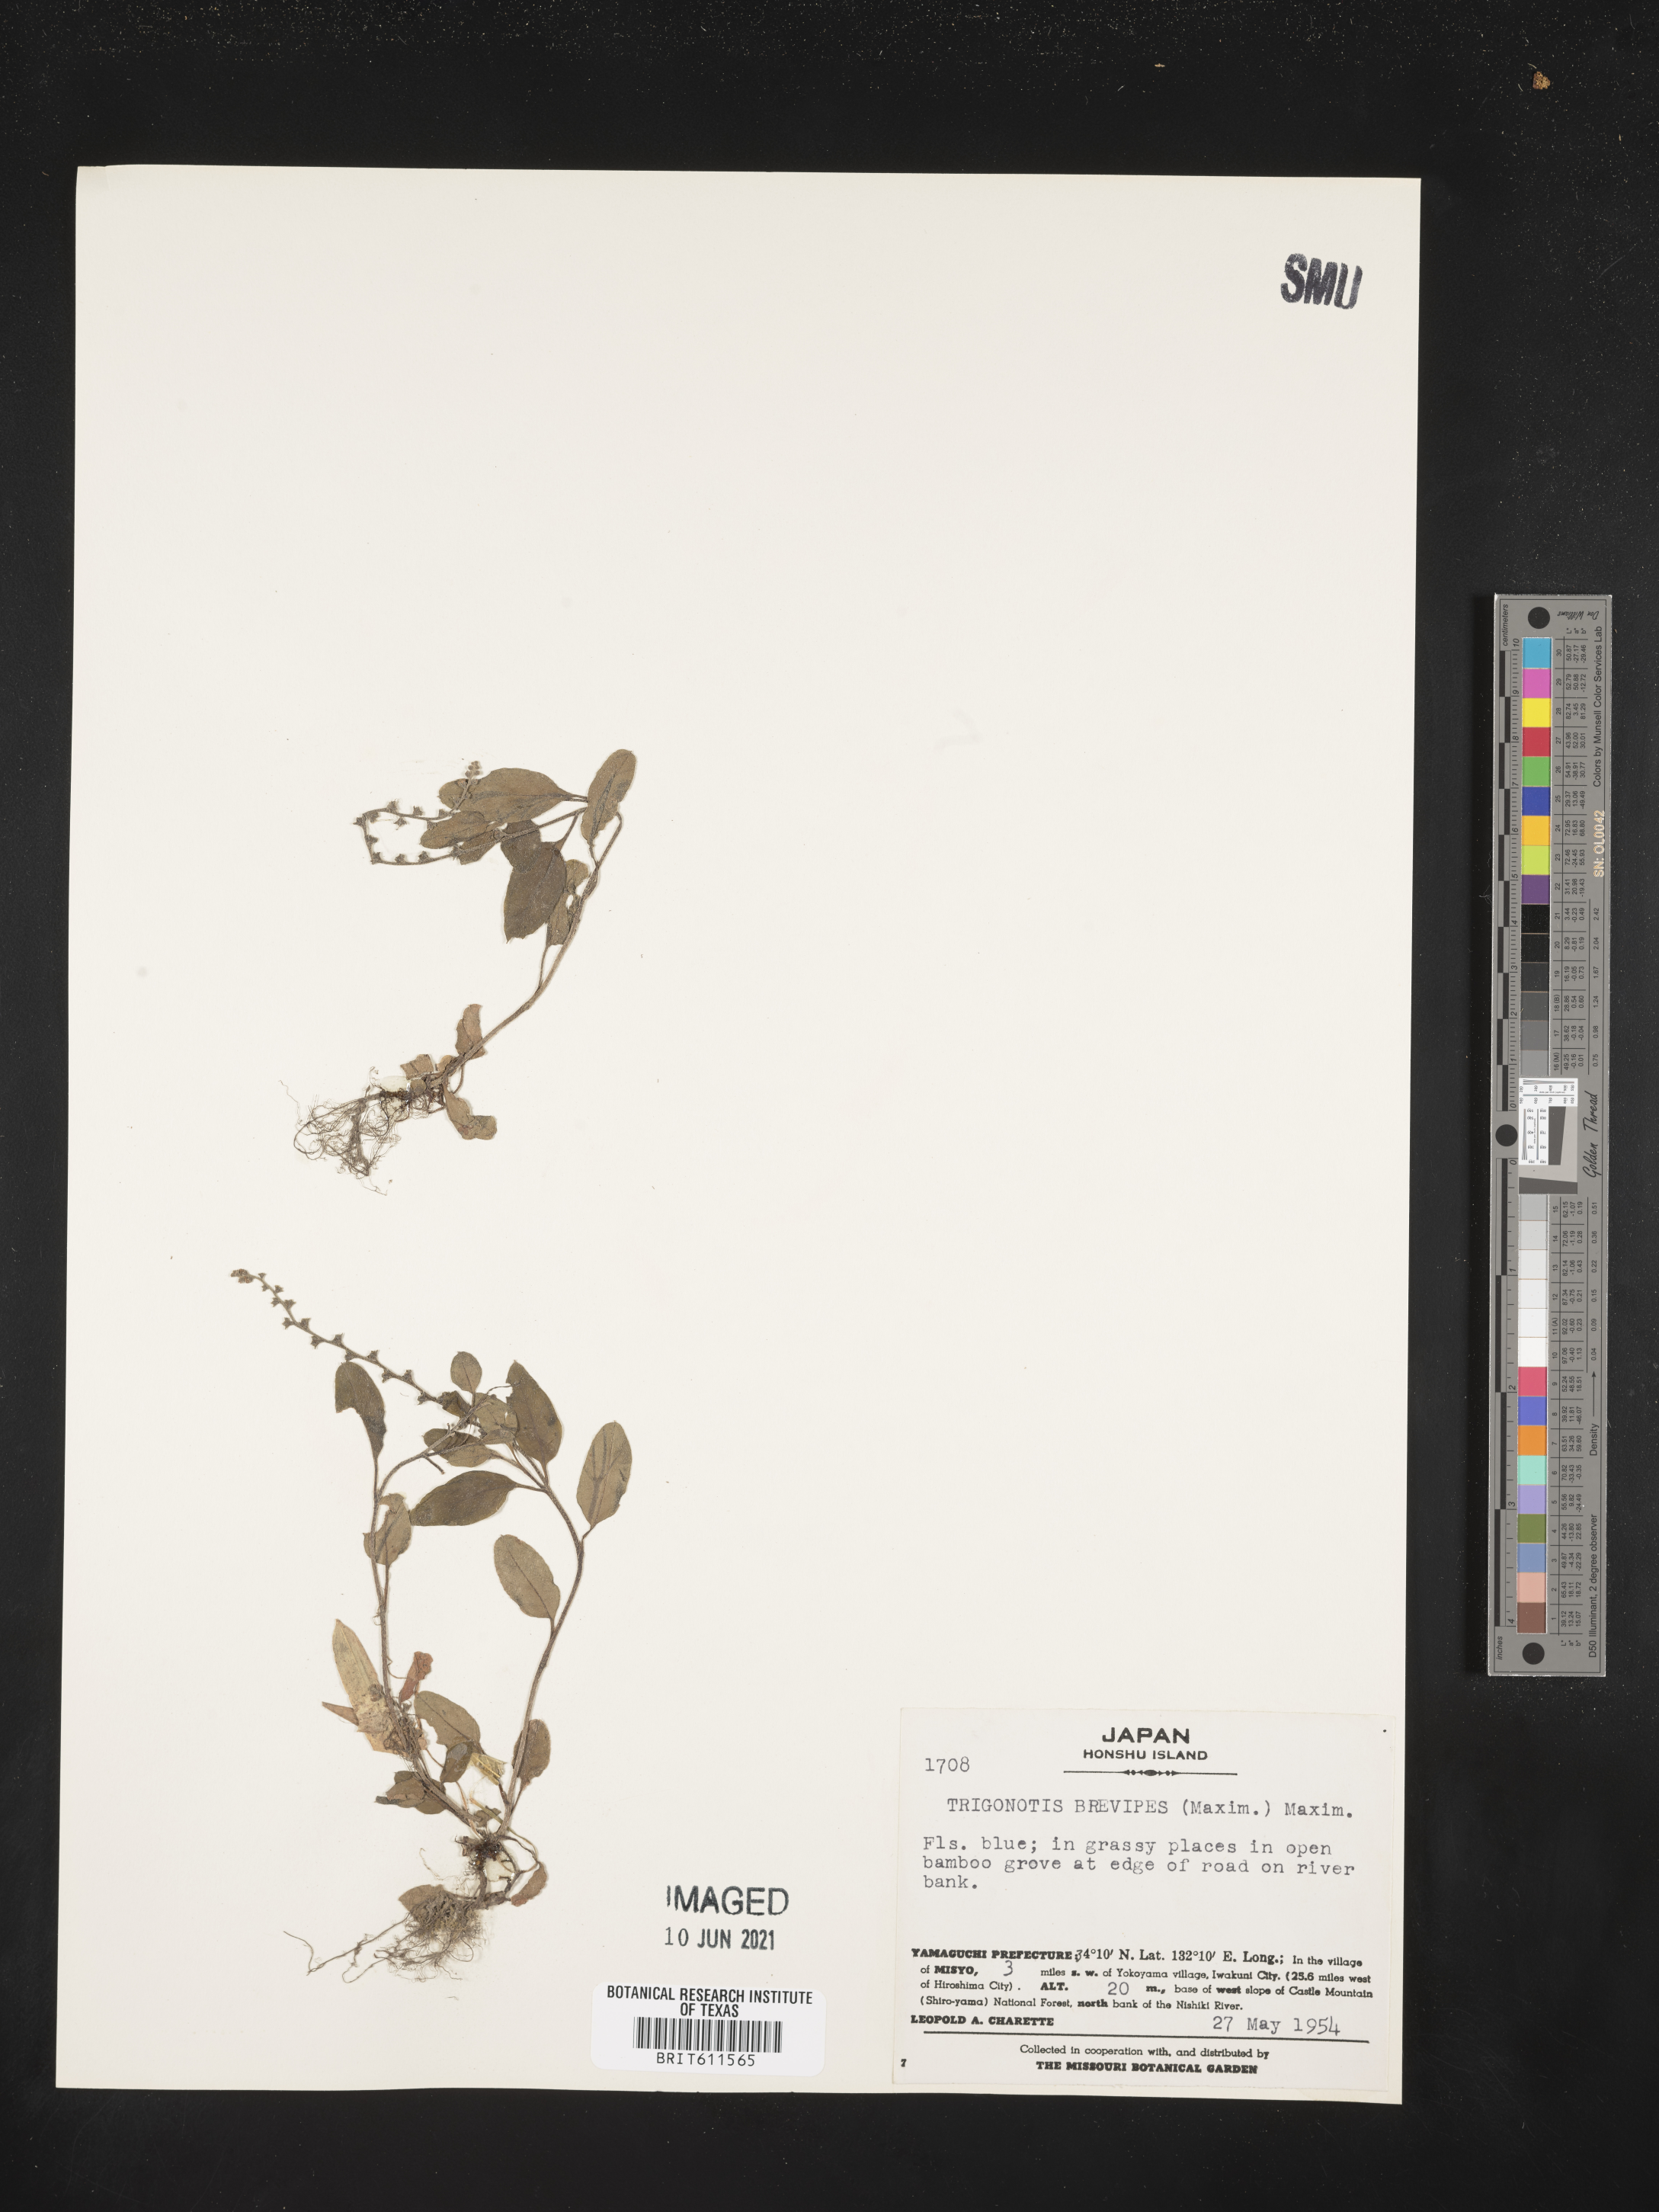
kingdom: Plantae
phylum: Tracheophyta
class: Magnoliopsida
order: Boraginales
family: Boraginaceae
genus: Trigonotis
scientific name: Trigonotis brevipes
